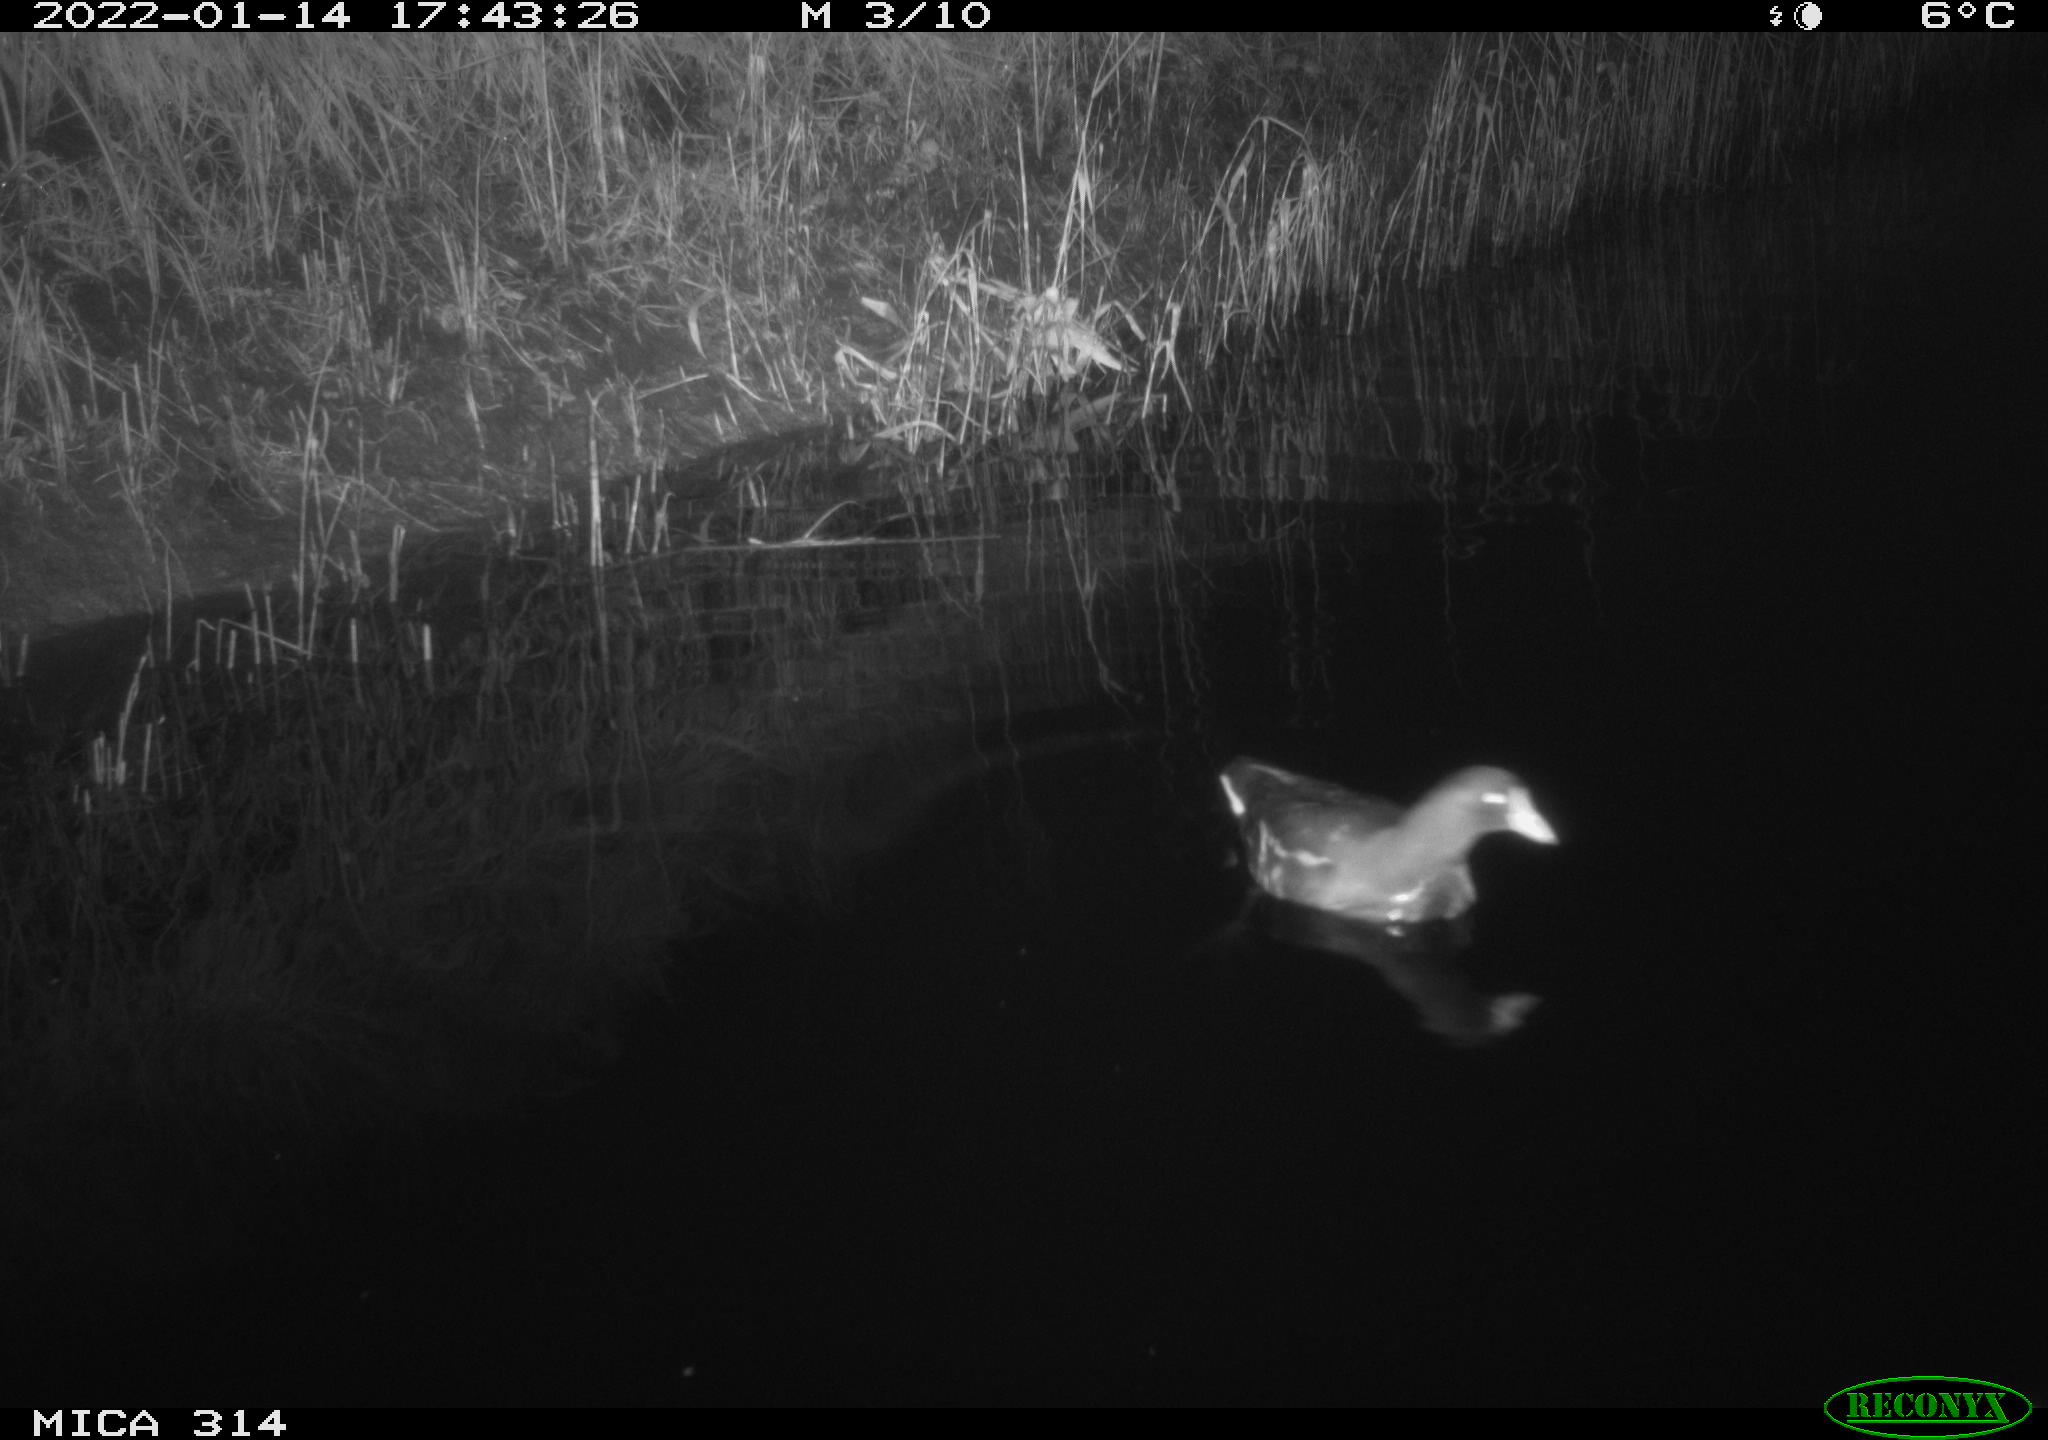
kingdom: Animalia
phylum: Chordata
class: Aves
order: Anseriformes
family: Anatidae
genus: Anas
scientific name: Anas
